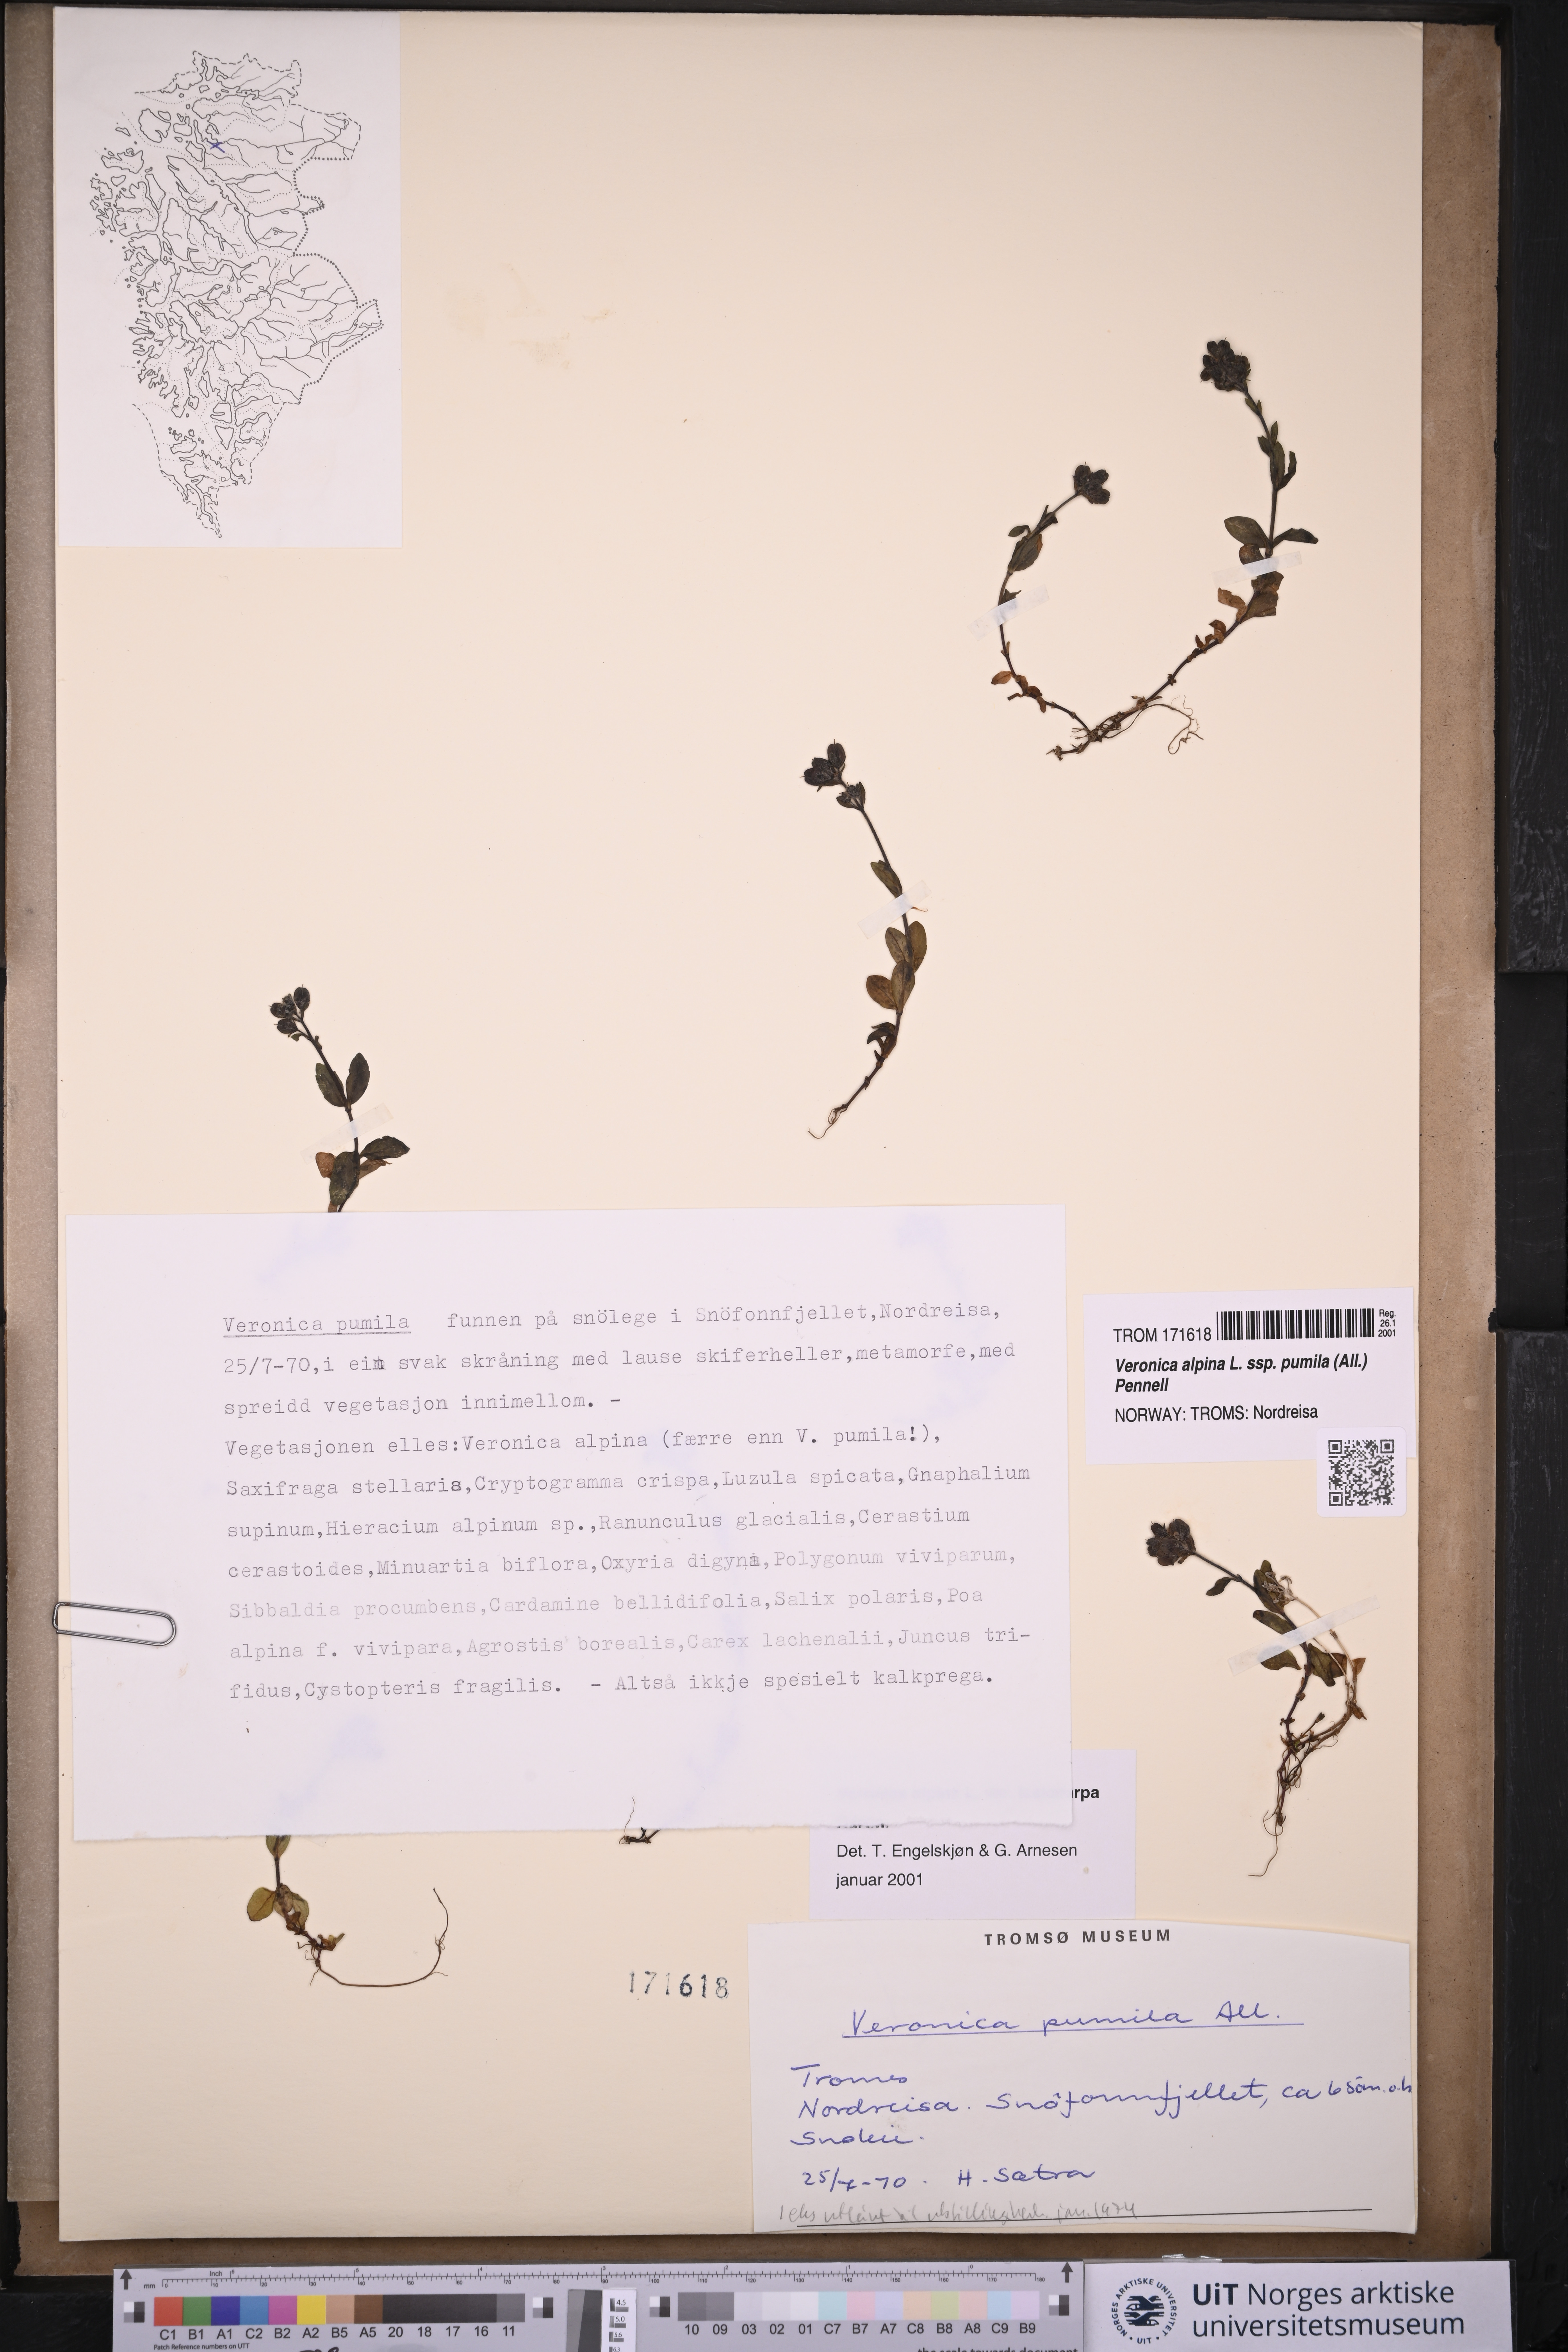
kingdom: Plantae
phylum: Tracheophyta
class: Magnoliopsida
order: Lamiales
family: Plantaginaceae
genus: Veronica
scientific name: Veronica alpina
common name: Alpine speedwell
